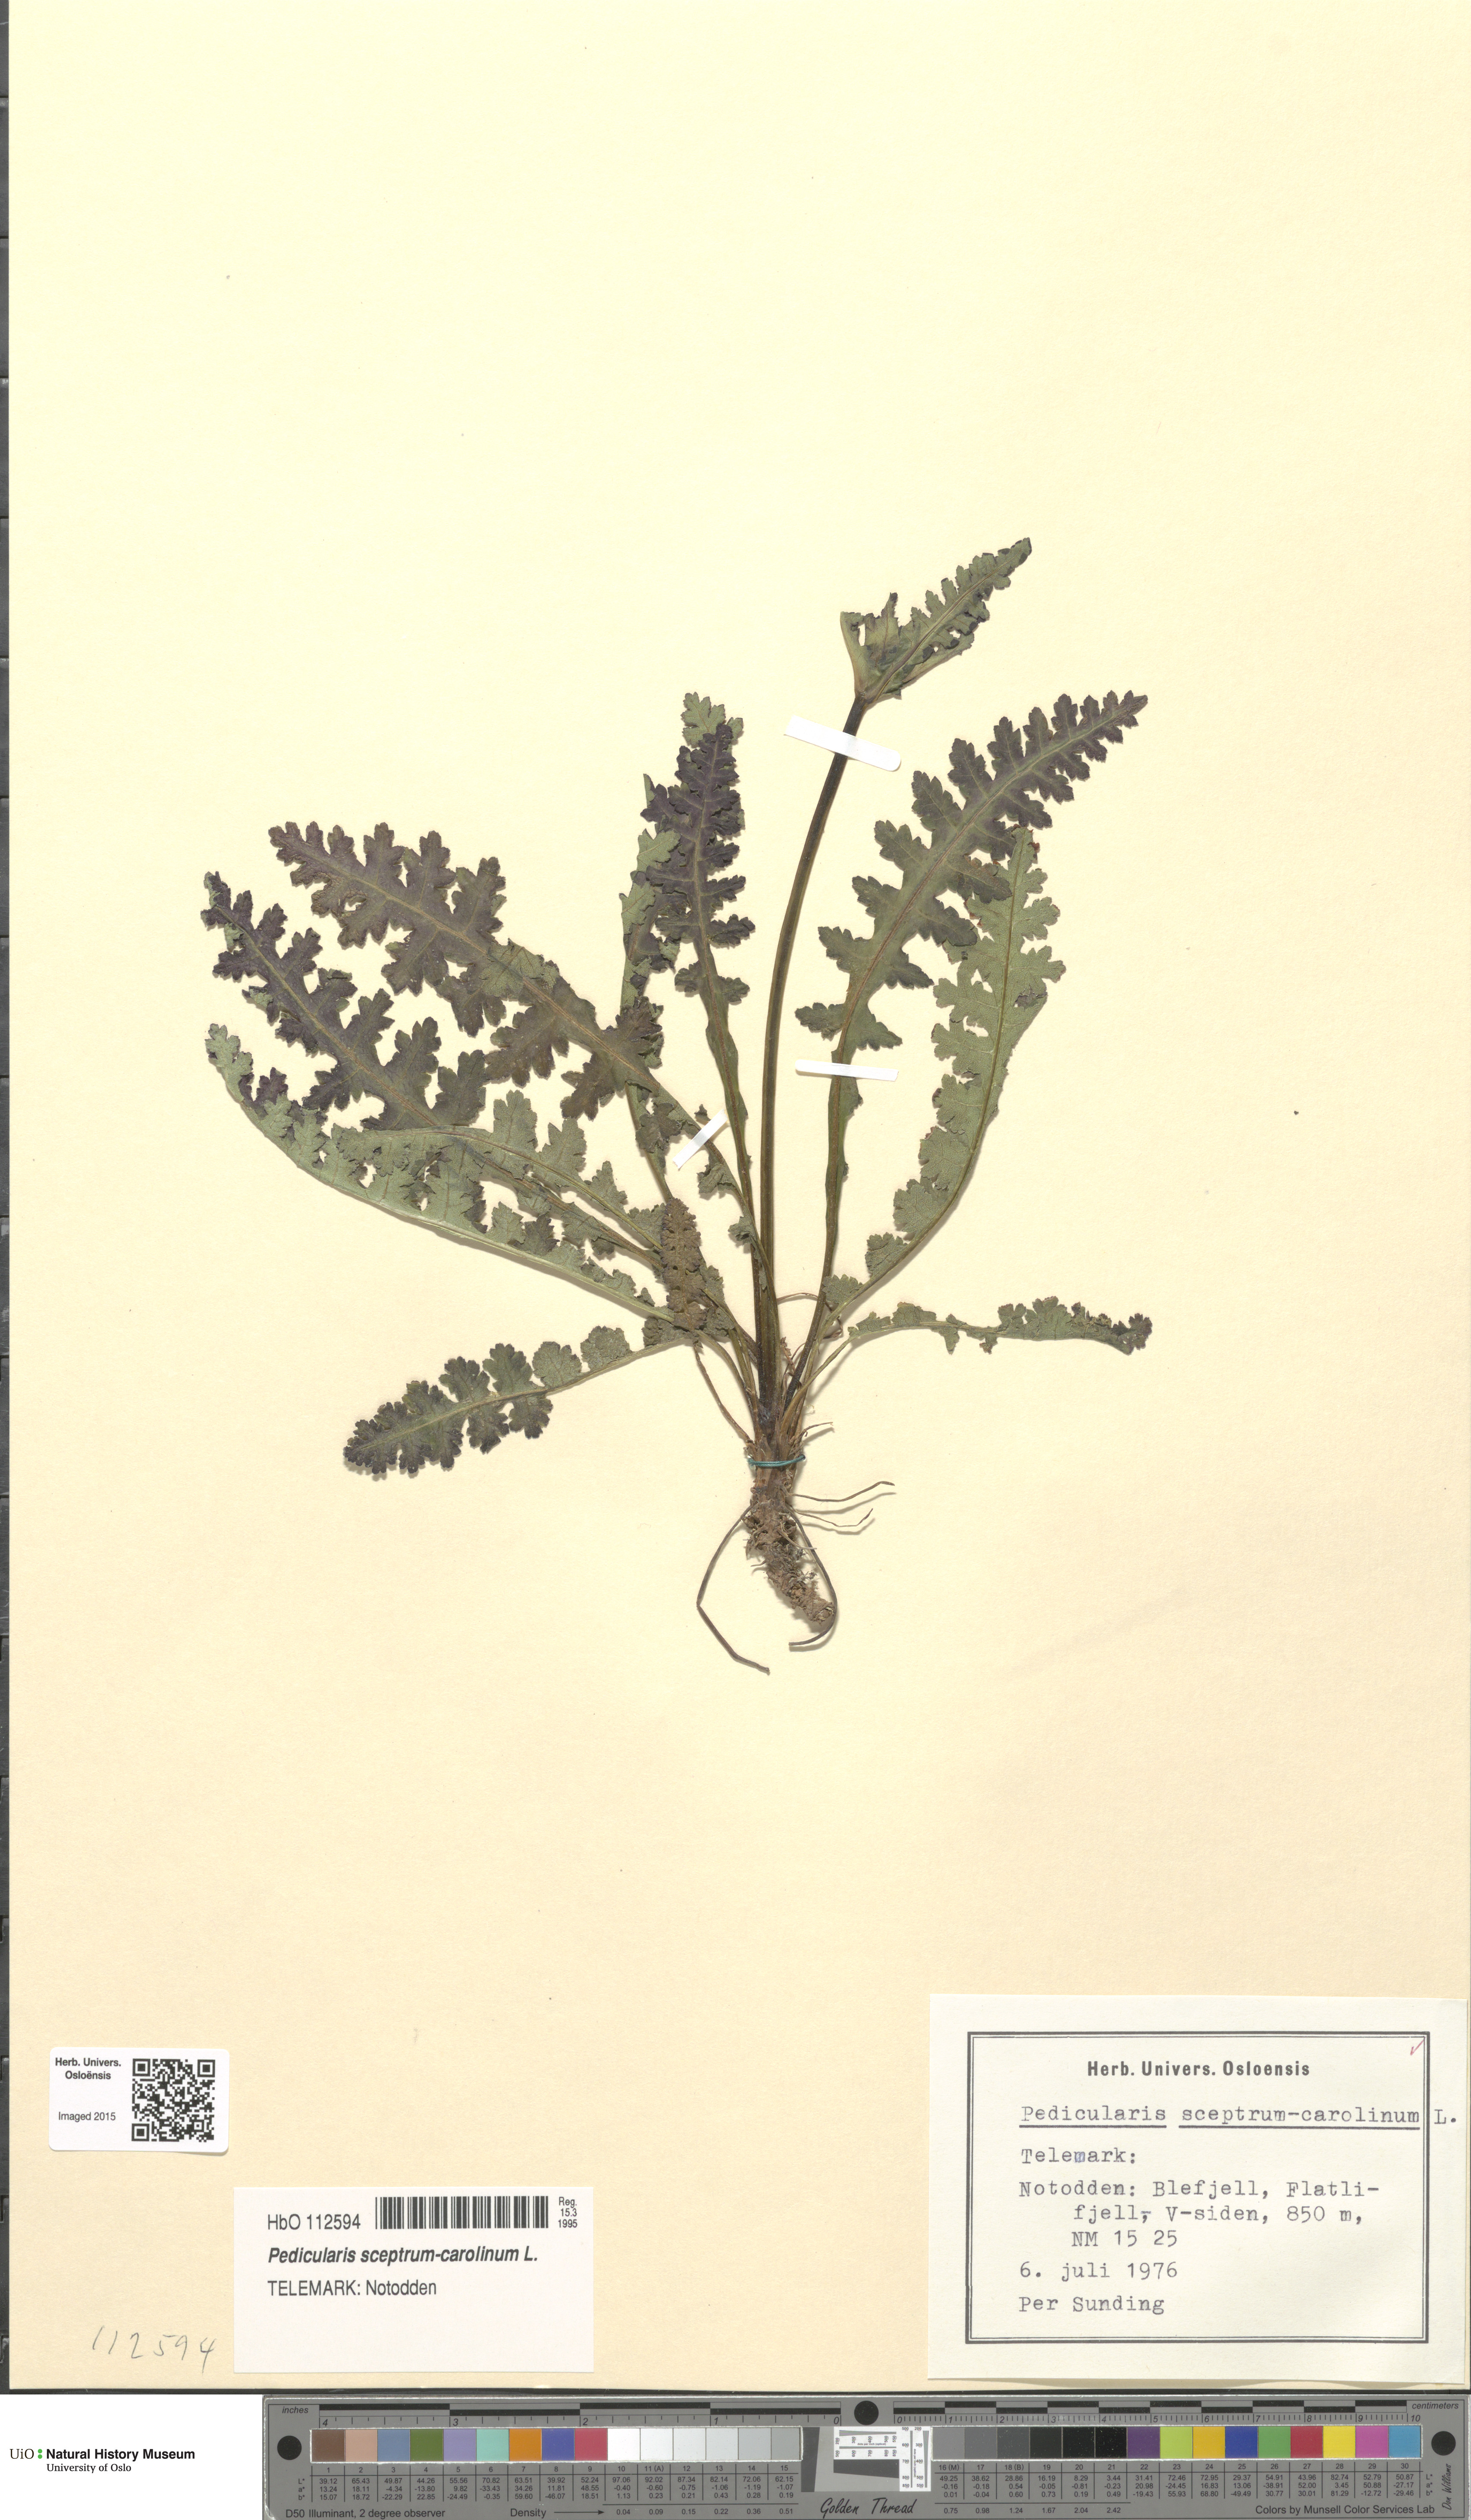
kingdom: Plantae
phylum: Tracheophyta
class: Magnoliopsida
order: Lamiales
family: Orobanchaceae
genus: Pedicularis
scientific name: Pedicularis sceptrum-carolinum
